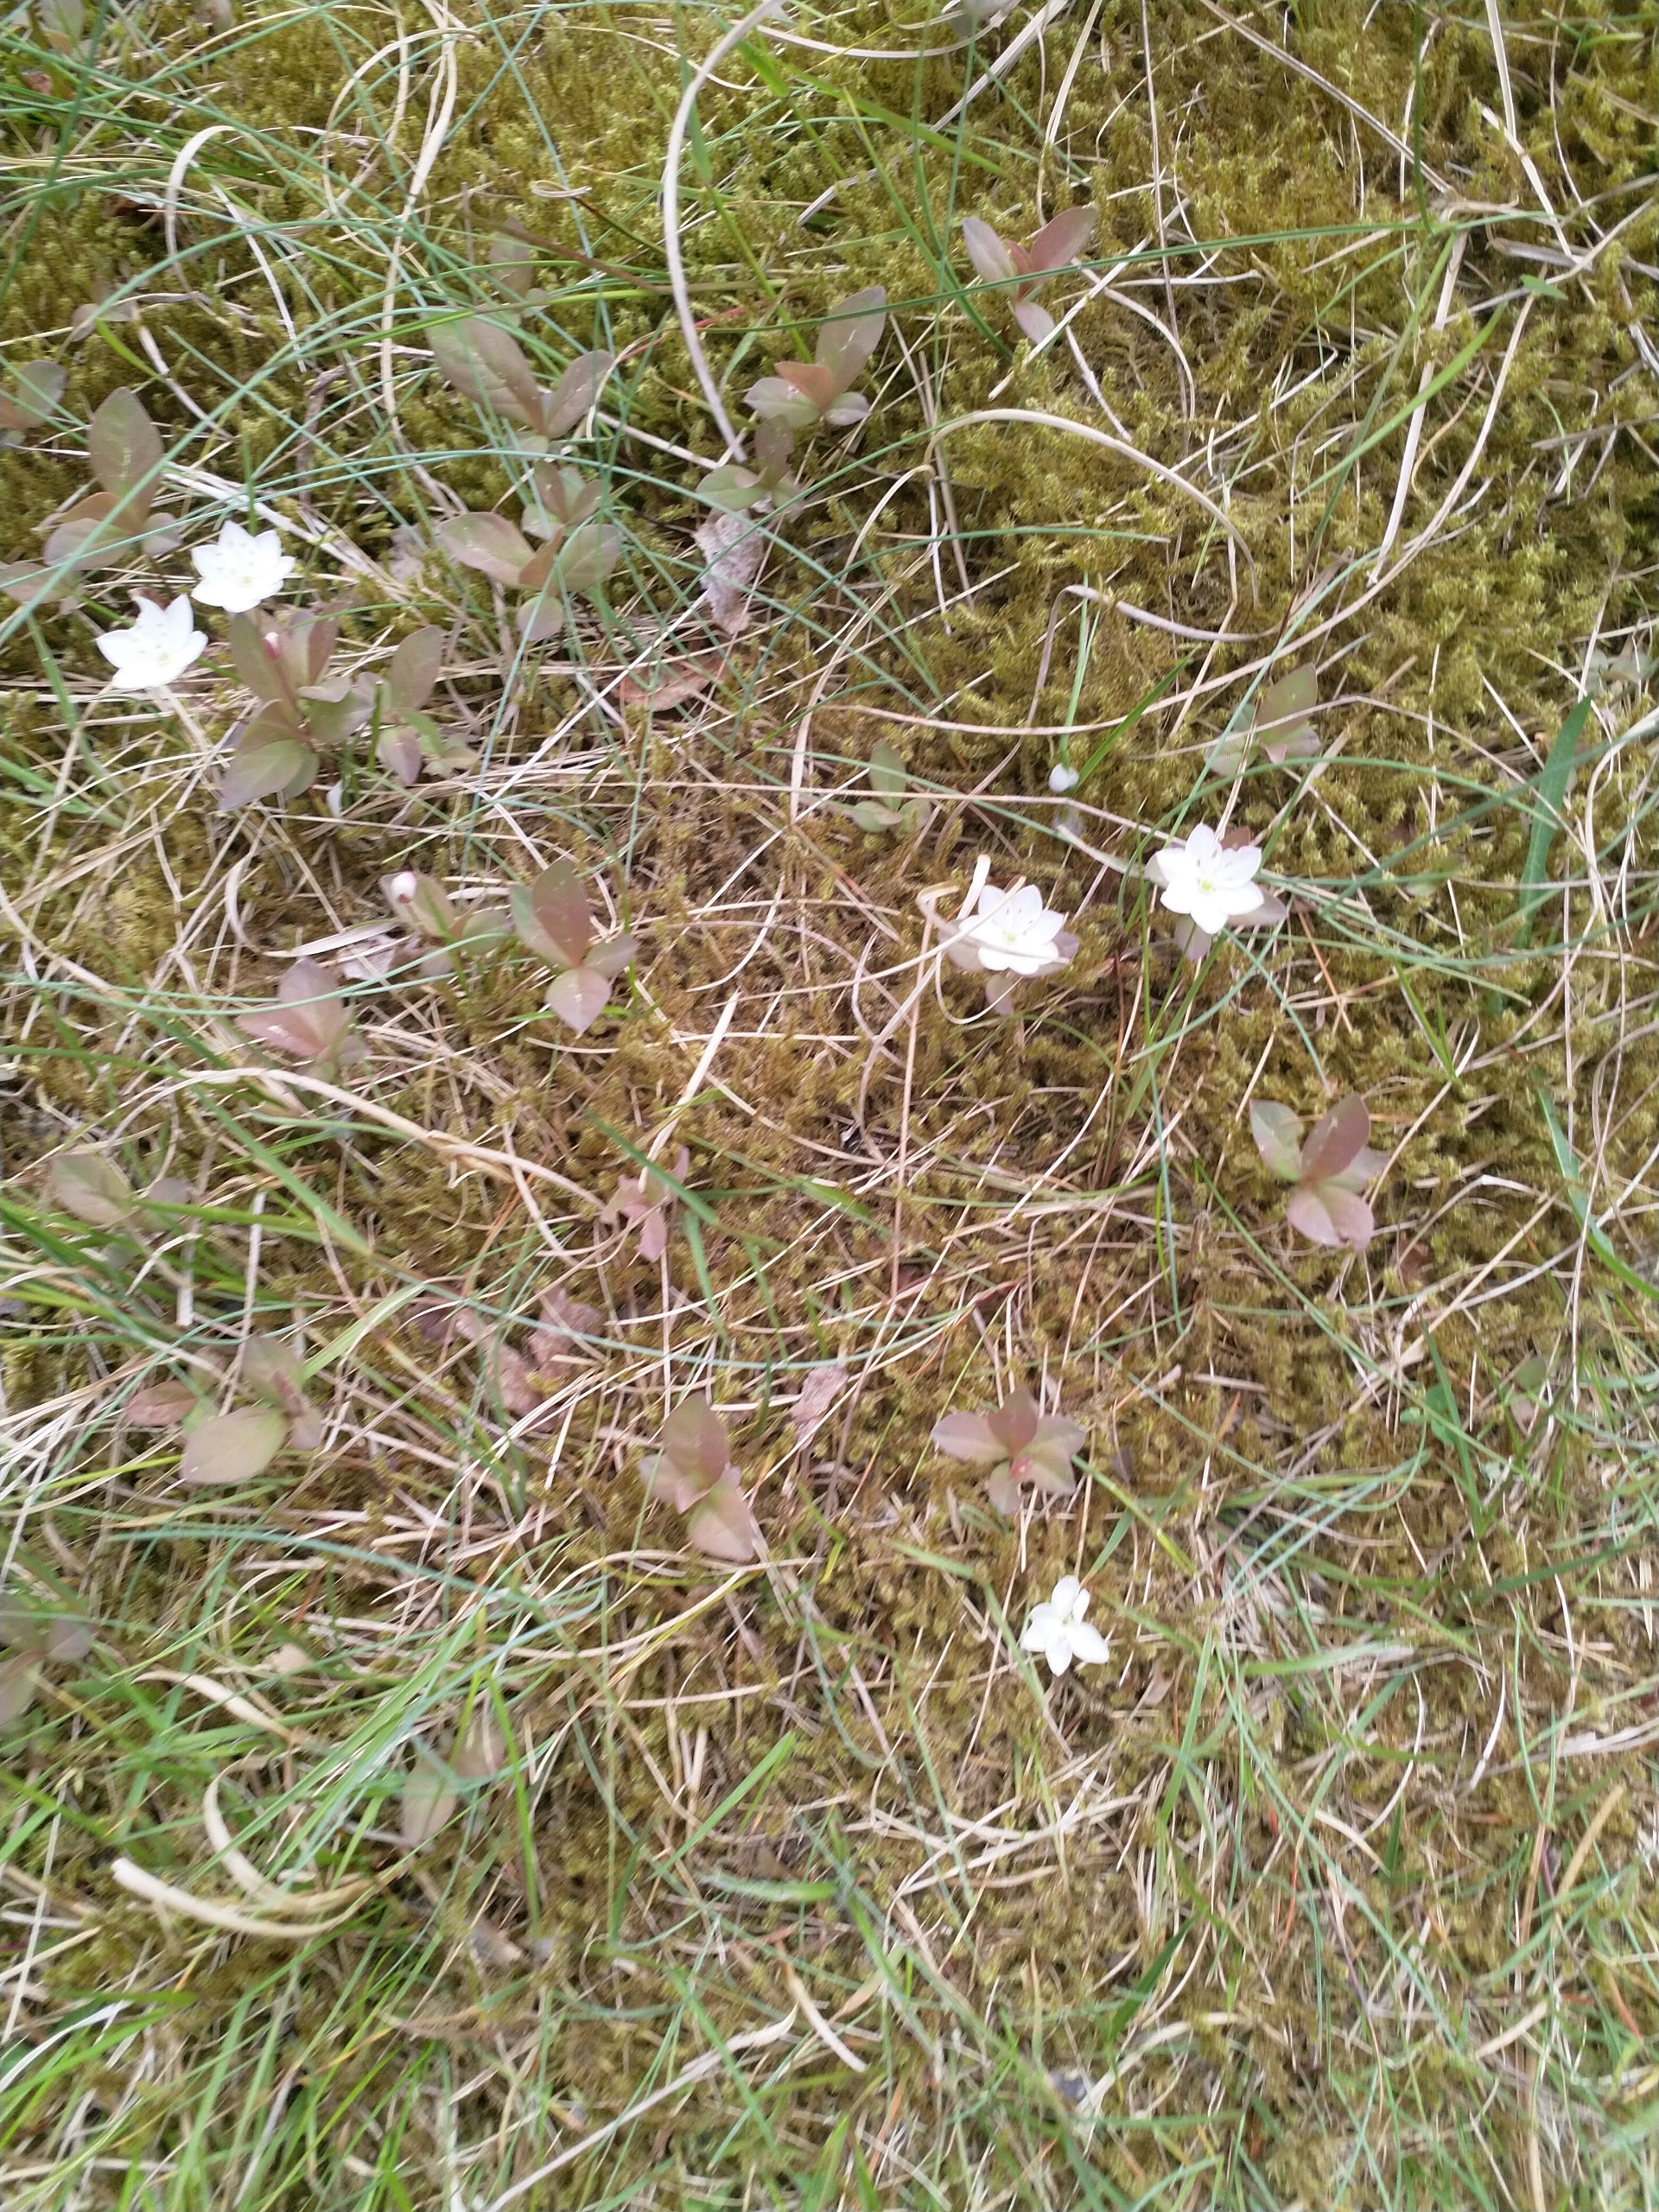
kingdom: Plantae
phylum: Tracheophyta
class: Magnoliopsida
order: Ericales
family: Primulaceae
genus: Lysimachia
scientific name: Lysimachia europaea
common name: Skovstjerne
